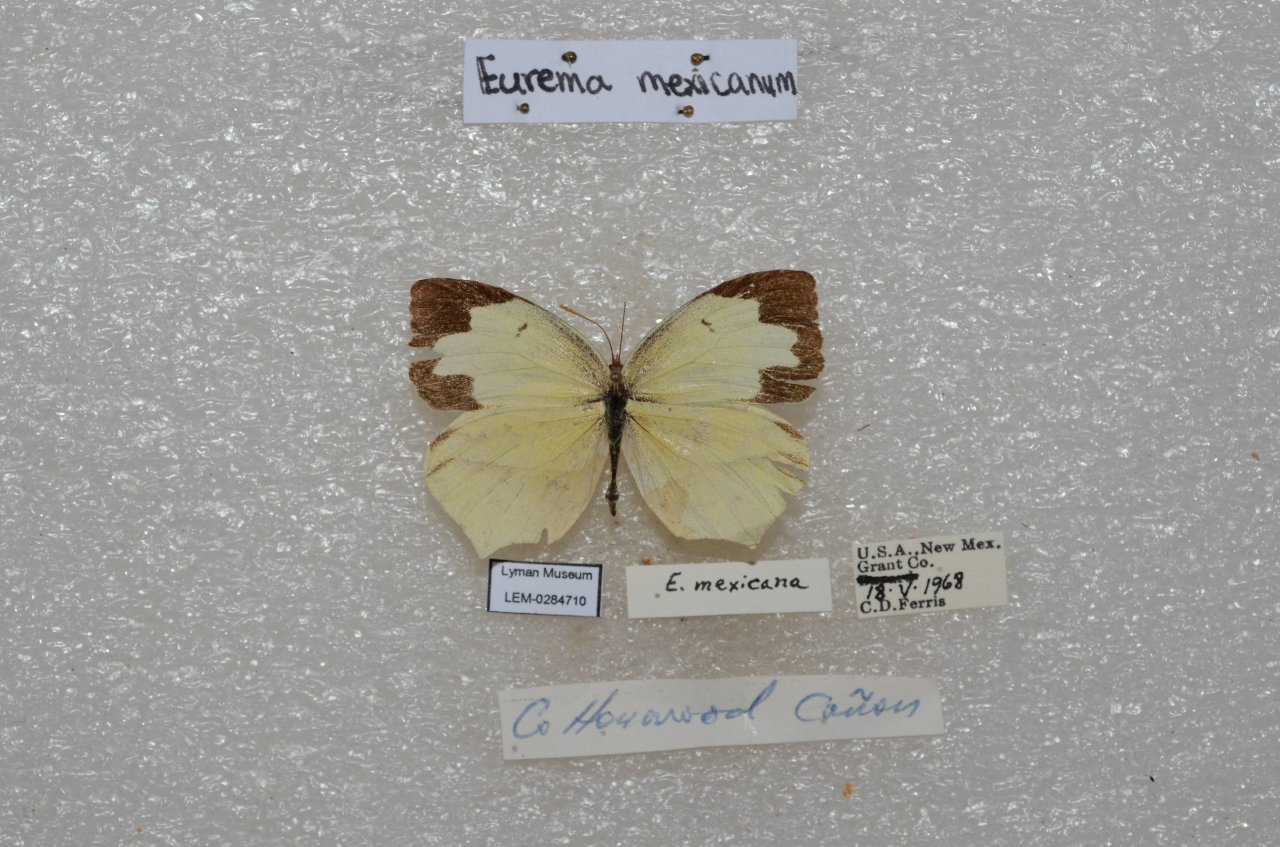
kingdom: Animalia
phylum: Arthropoda
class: Insecta
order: Lepidoptera
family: Pieridae
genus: Eurema
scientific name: Eurema mexicana
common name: Mexican Yellow
